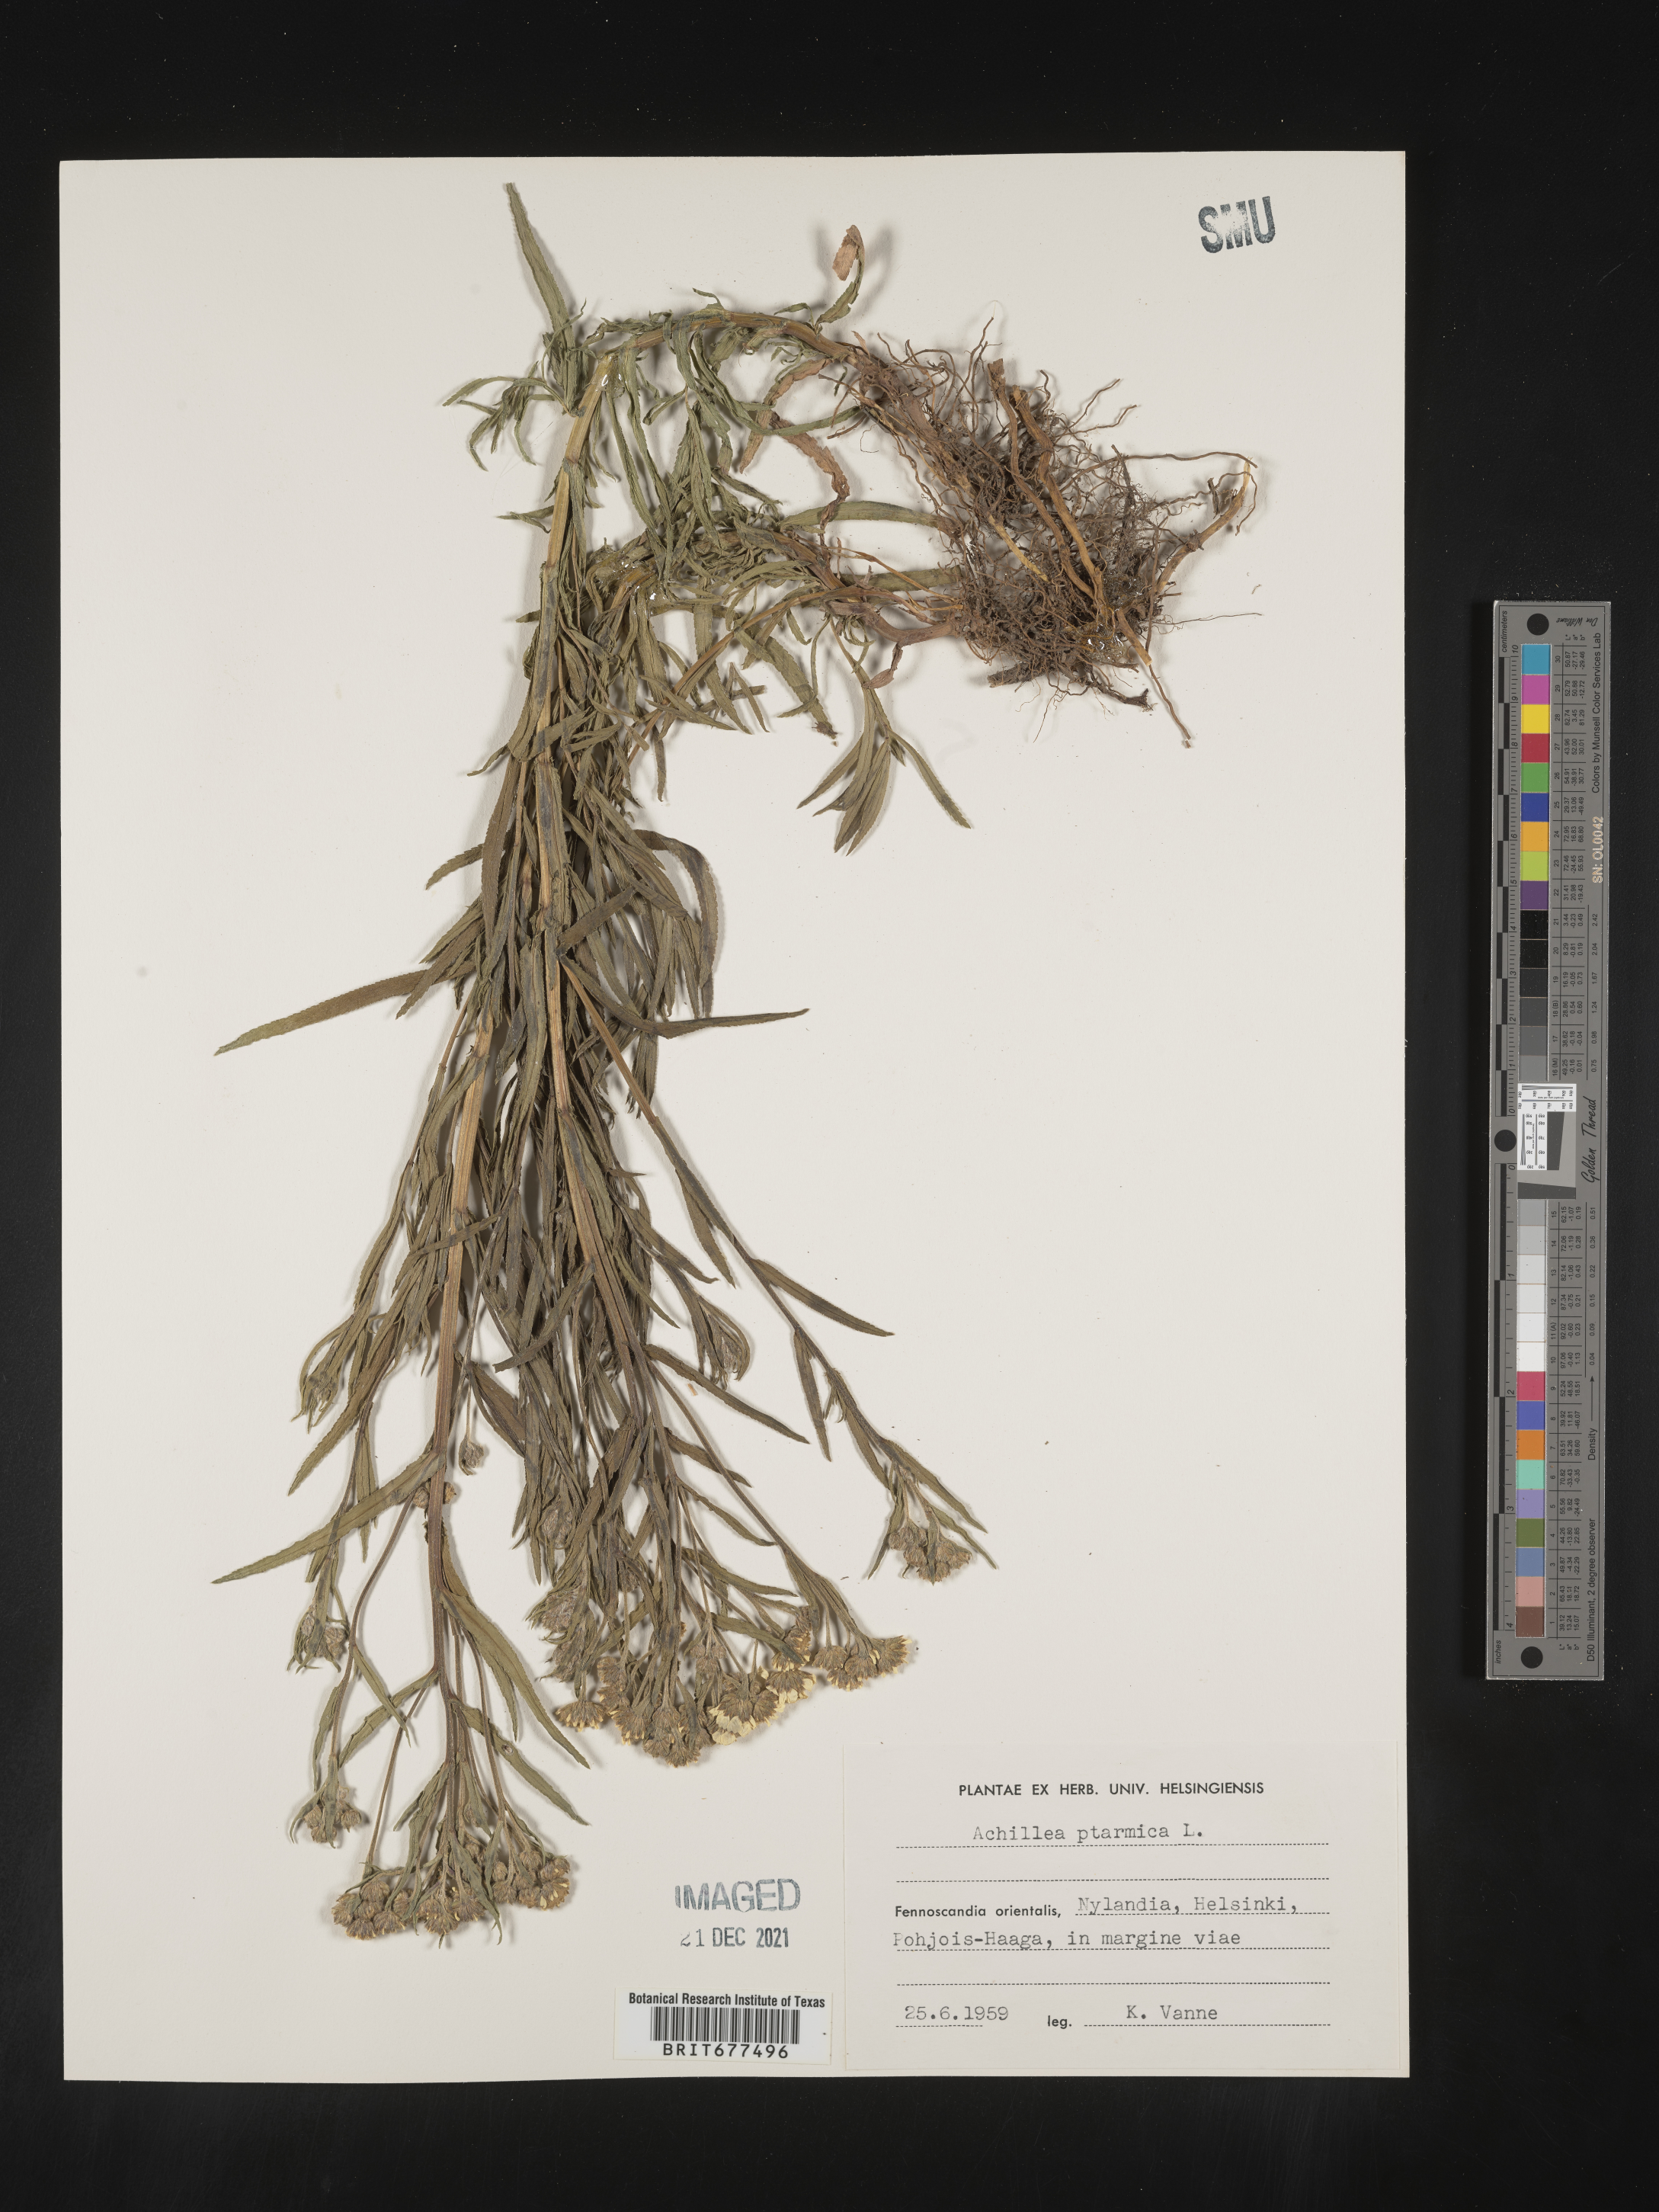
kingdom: Plantae
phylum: Tracheophyta
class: Magnoliopsida
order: Asterales
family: Asteraceae
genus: Achillea
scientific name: Achillea ptarmica
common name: Sneezeweed
